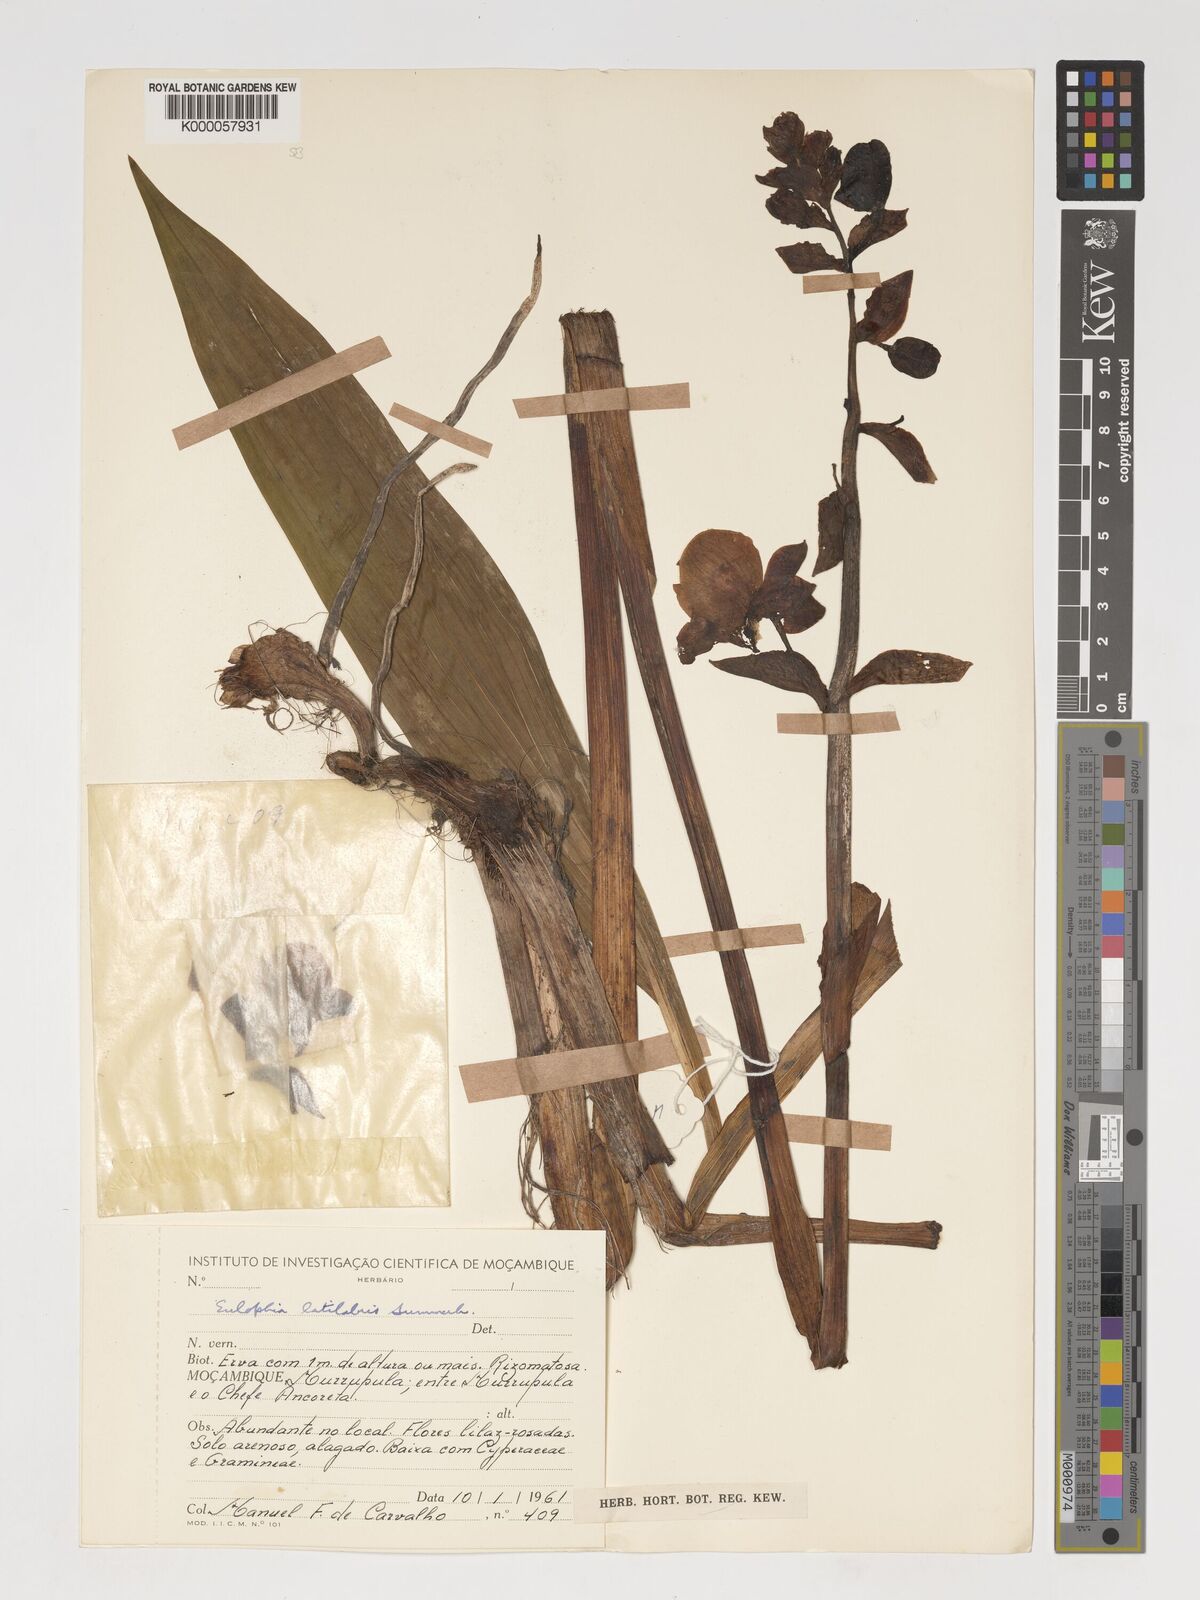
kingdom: Plantae
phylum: Tracheophyta
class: Liliopsida
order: Asparagales
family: Orchidaceae
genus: Eulophia
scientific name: Eulophia latilabris
